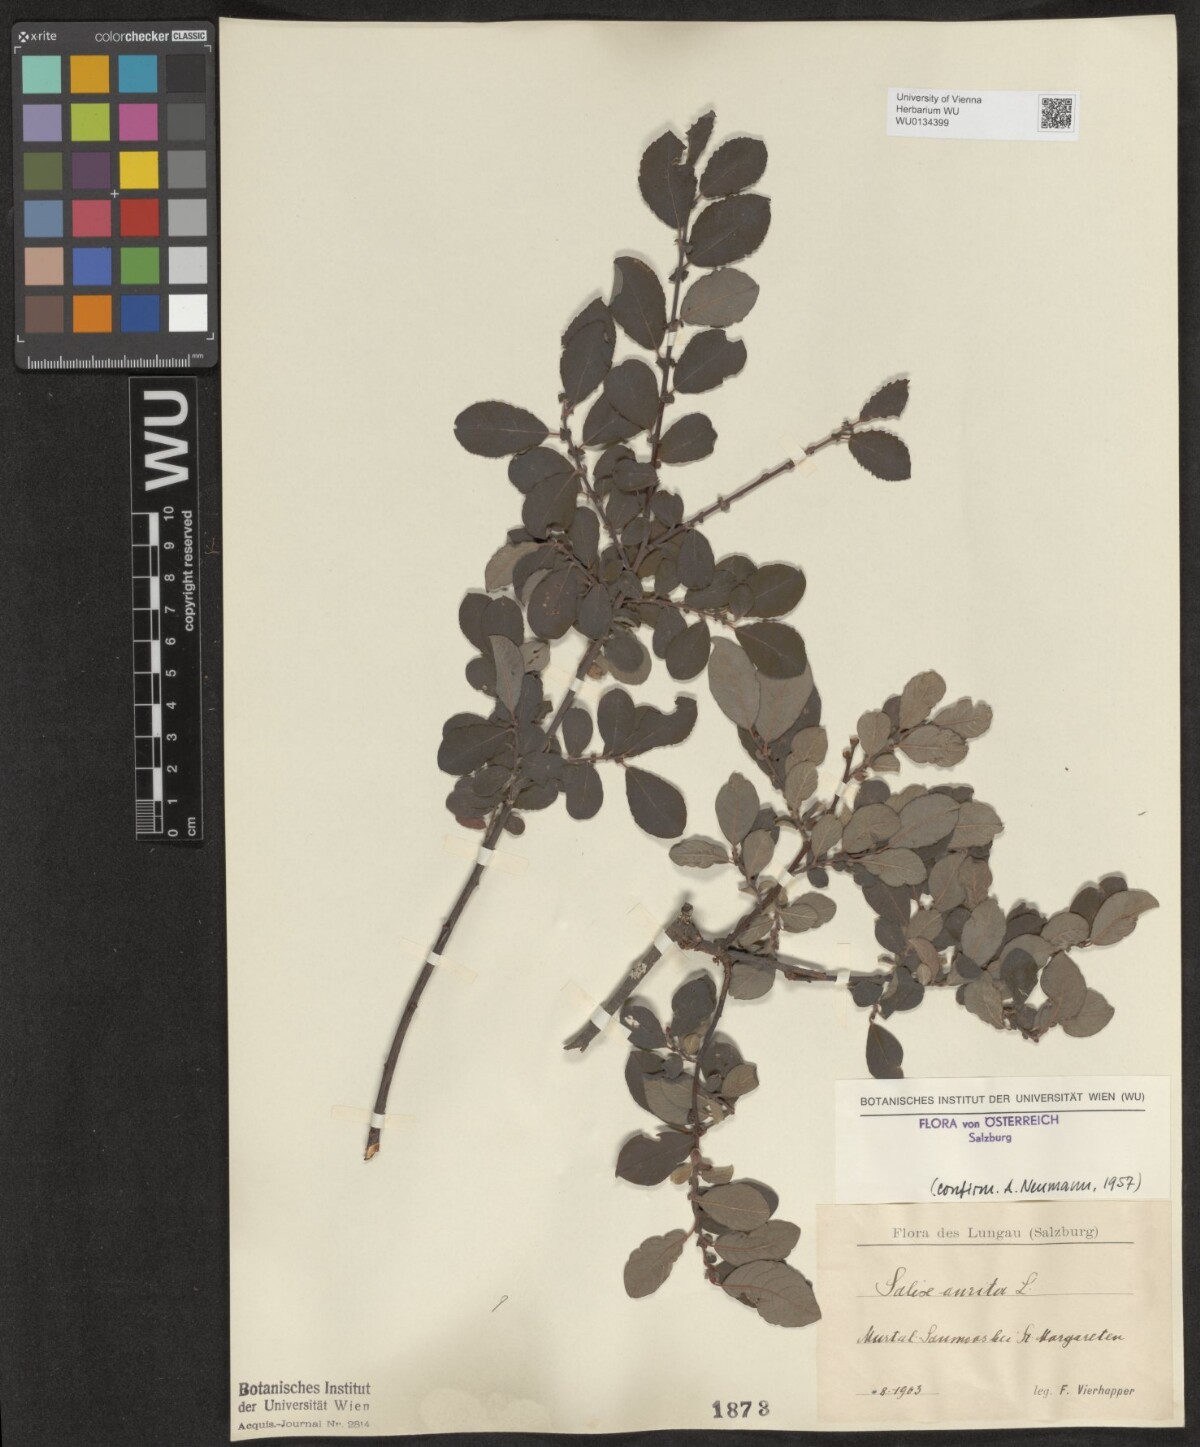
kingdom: Plantae
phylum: Tracheophyta
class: Magnoliopsida
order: Malpighiales
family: Salicaceae
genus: Salix
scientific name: Salix aurita
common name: Eared willow
